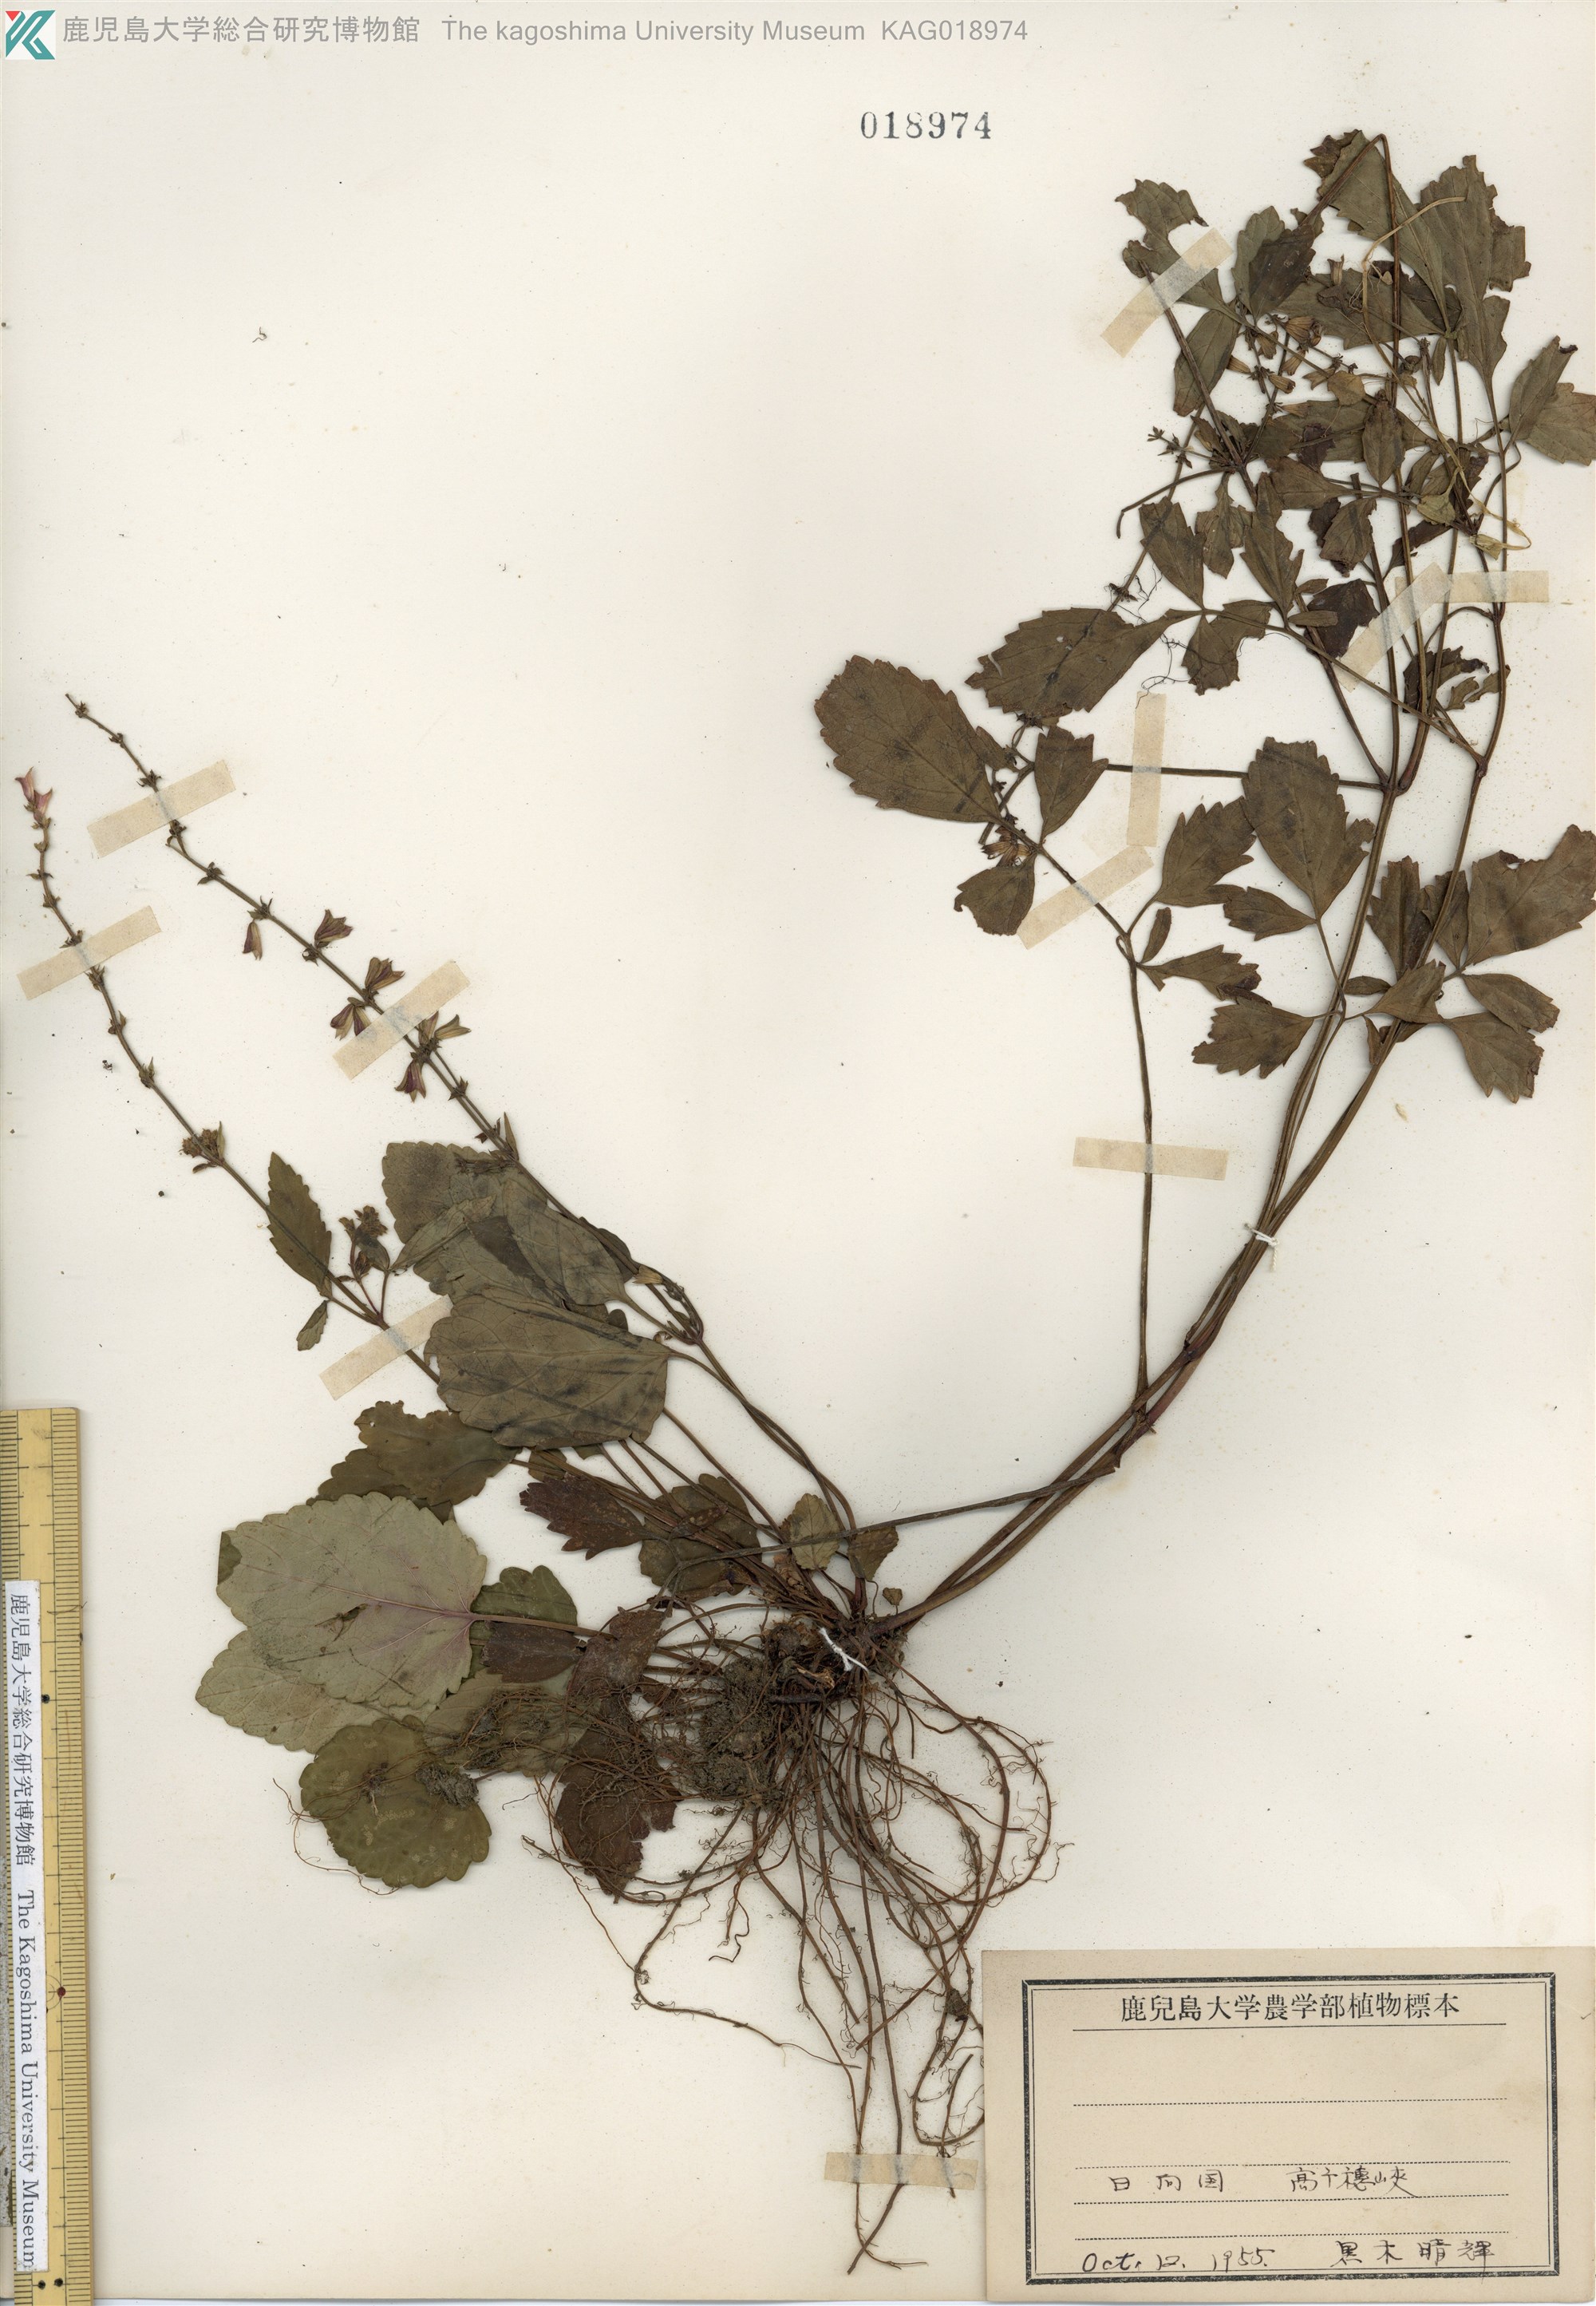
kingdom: Plantae
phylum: Tracheophyta
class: Magnoliopsida
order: Lamiales
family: Lamiaceae
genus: Salvia
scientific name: Salvia japonica
